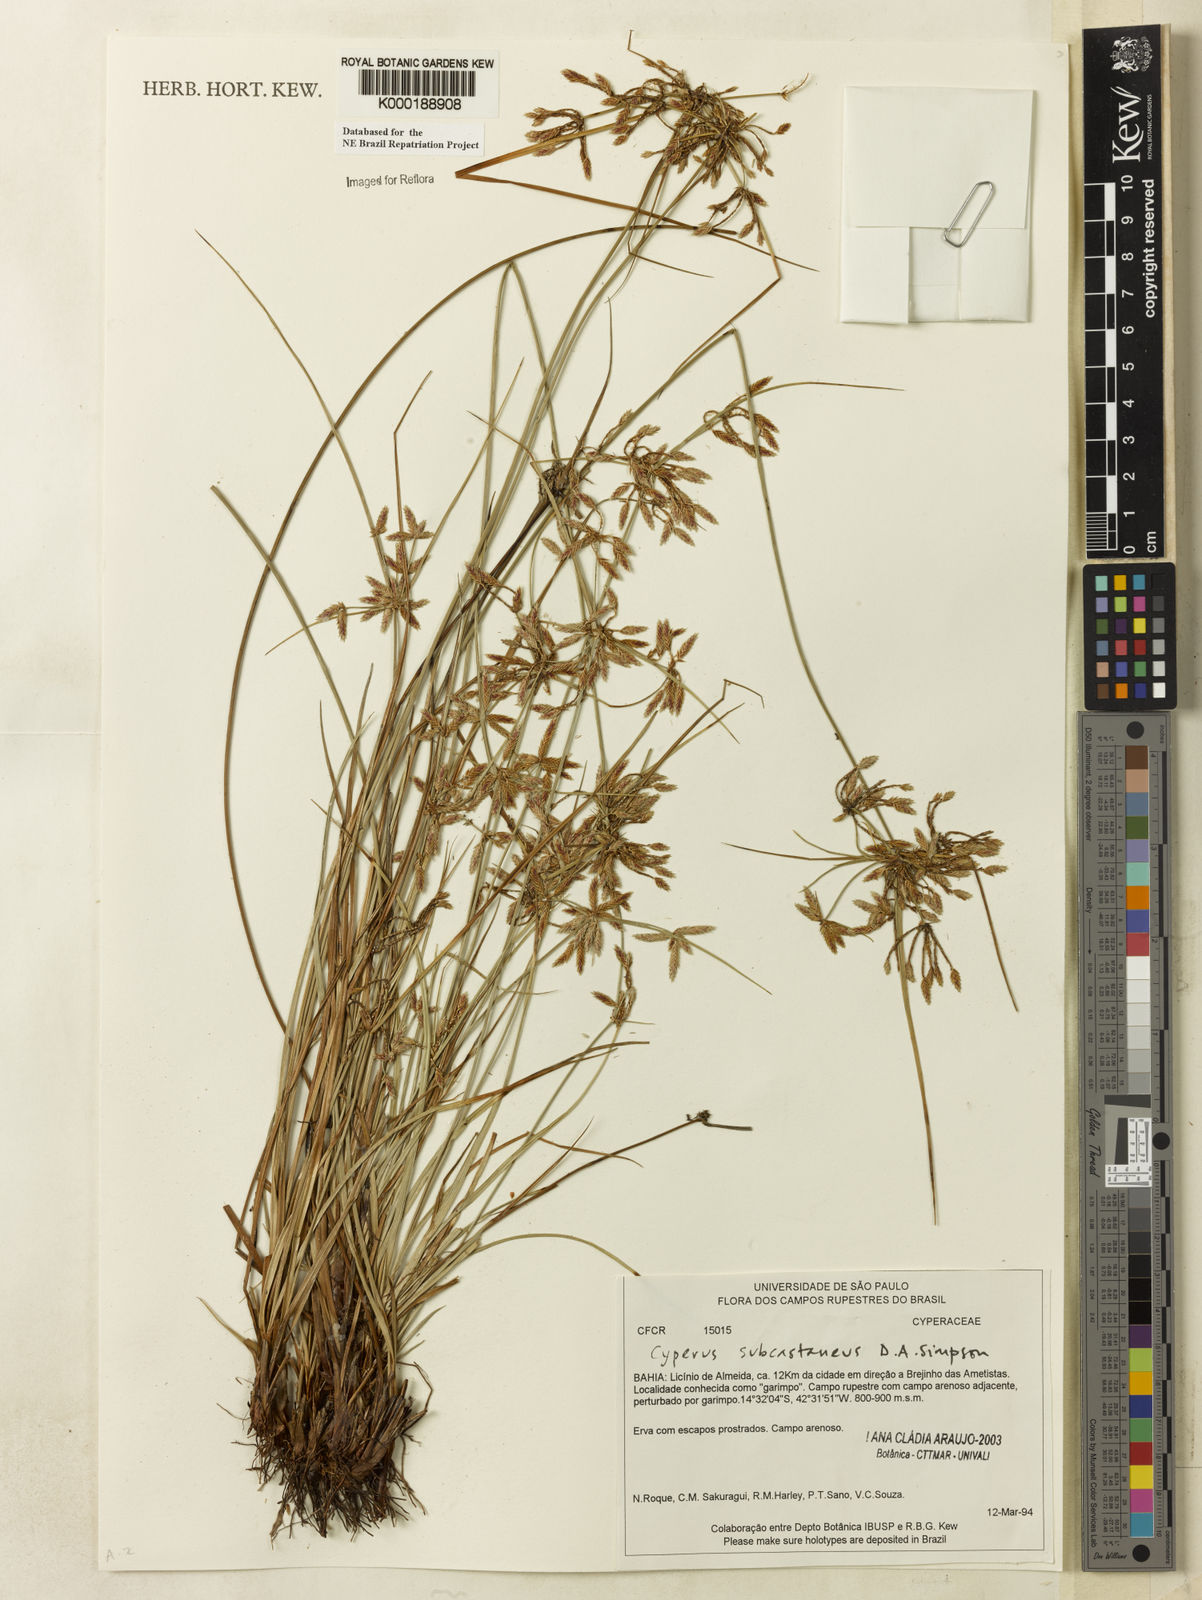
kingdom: Plantae
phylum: Tracheophyta
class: Liliopsida
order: Poales
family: Cyperaceae
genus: Cyperus
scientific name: Cyperus subcastaneus
